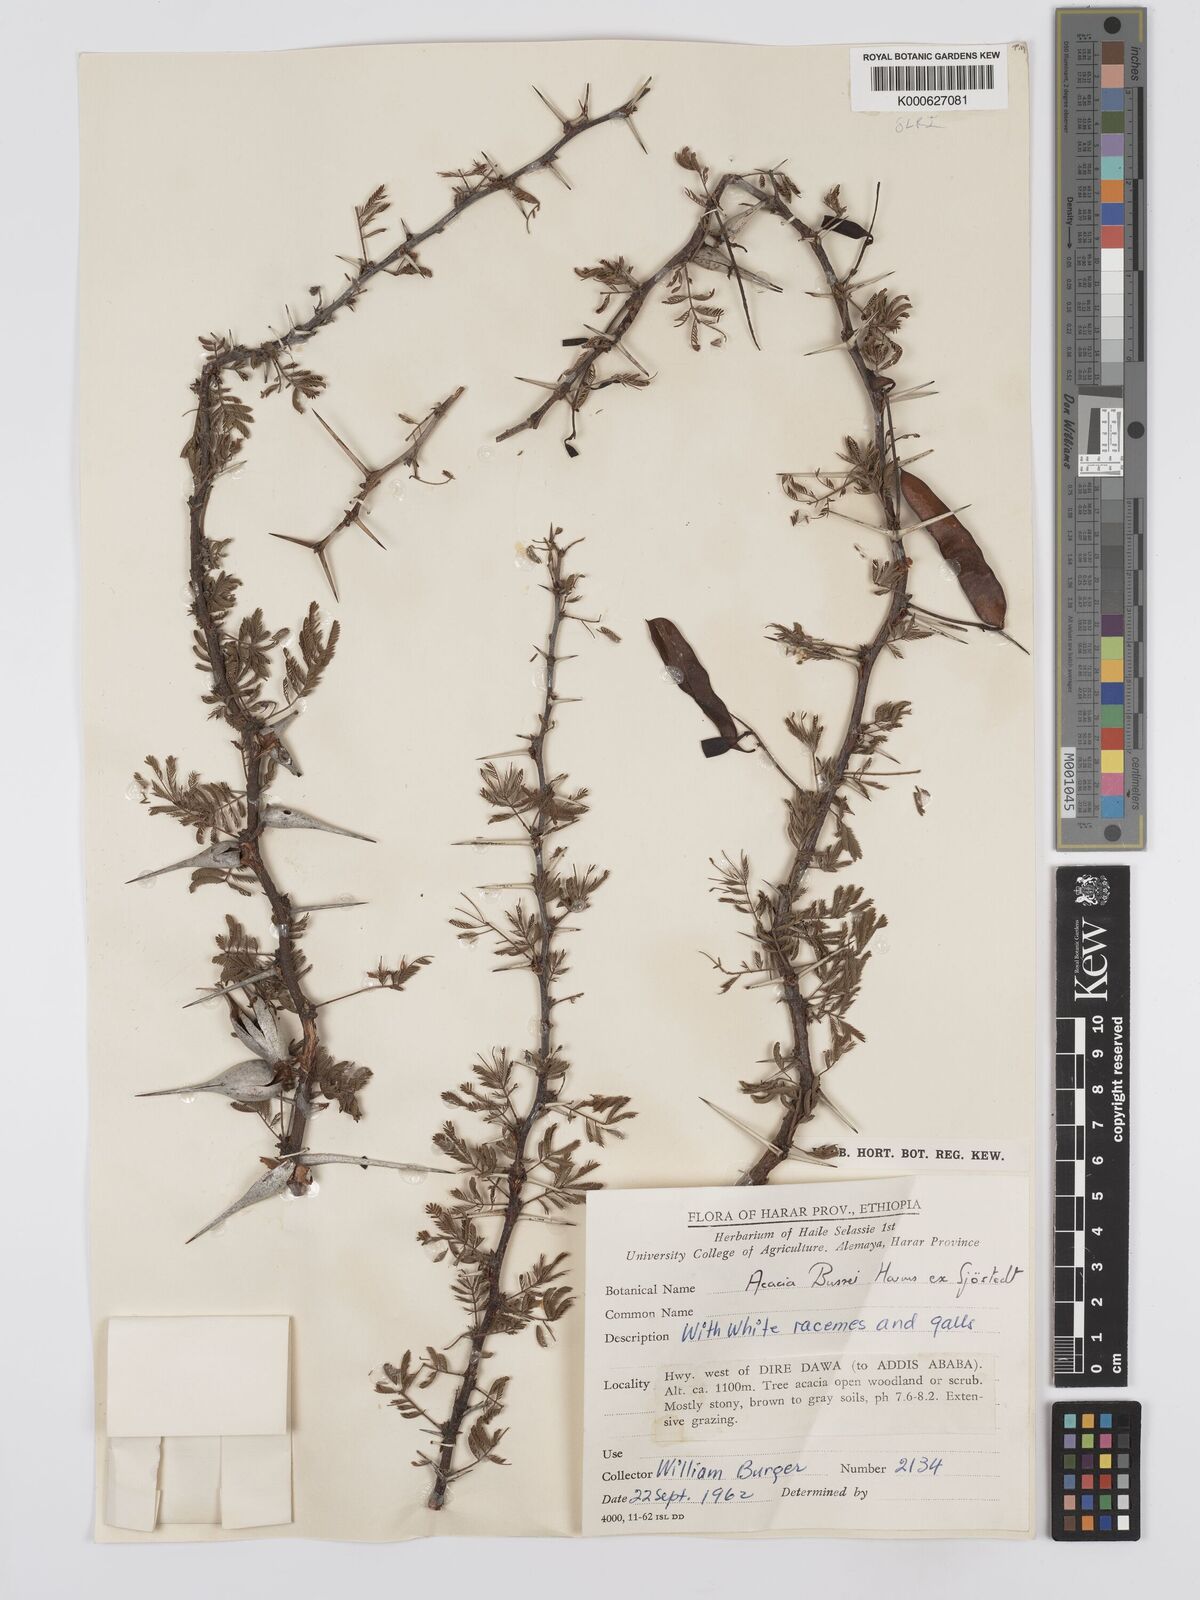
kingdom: Plantae
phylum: Tracheophyta
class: Magnoliopsida
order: Fabales
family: Fabaceae
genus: Vachellia
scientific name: Vachellia bussei
